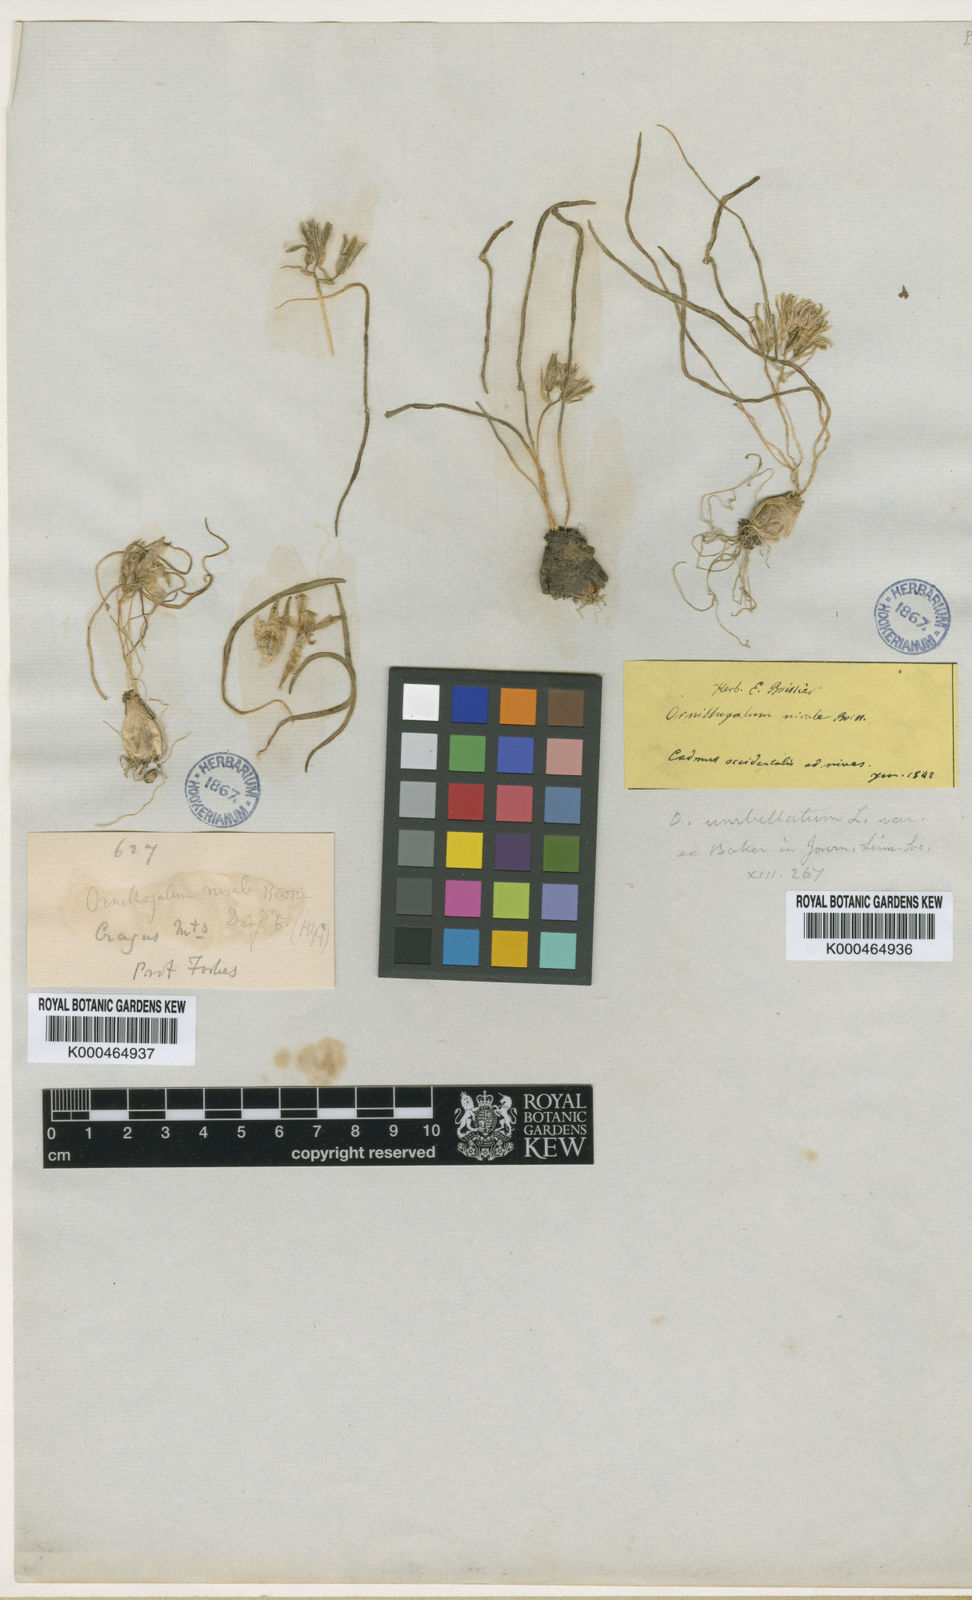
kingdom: Plantae
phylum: Tracheophyta
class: Liliopsida
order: Asparagales
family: Asparagaceae
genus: Ornithogalum
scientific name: Ornithogalum nivale
